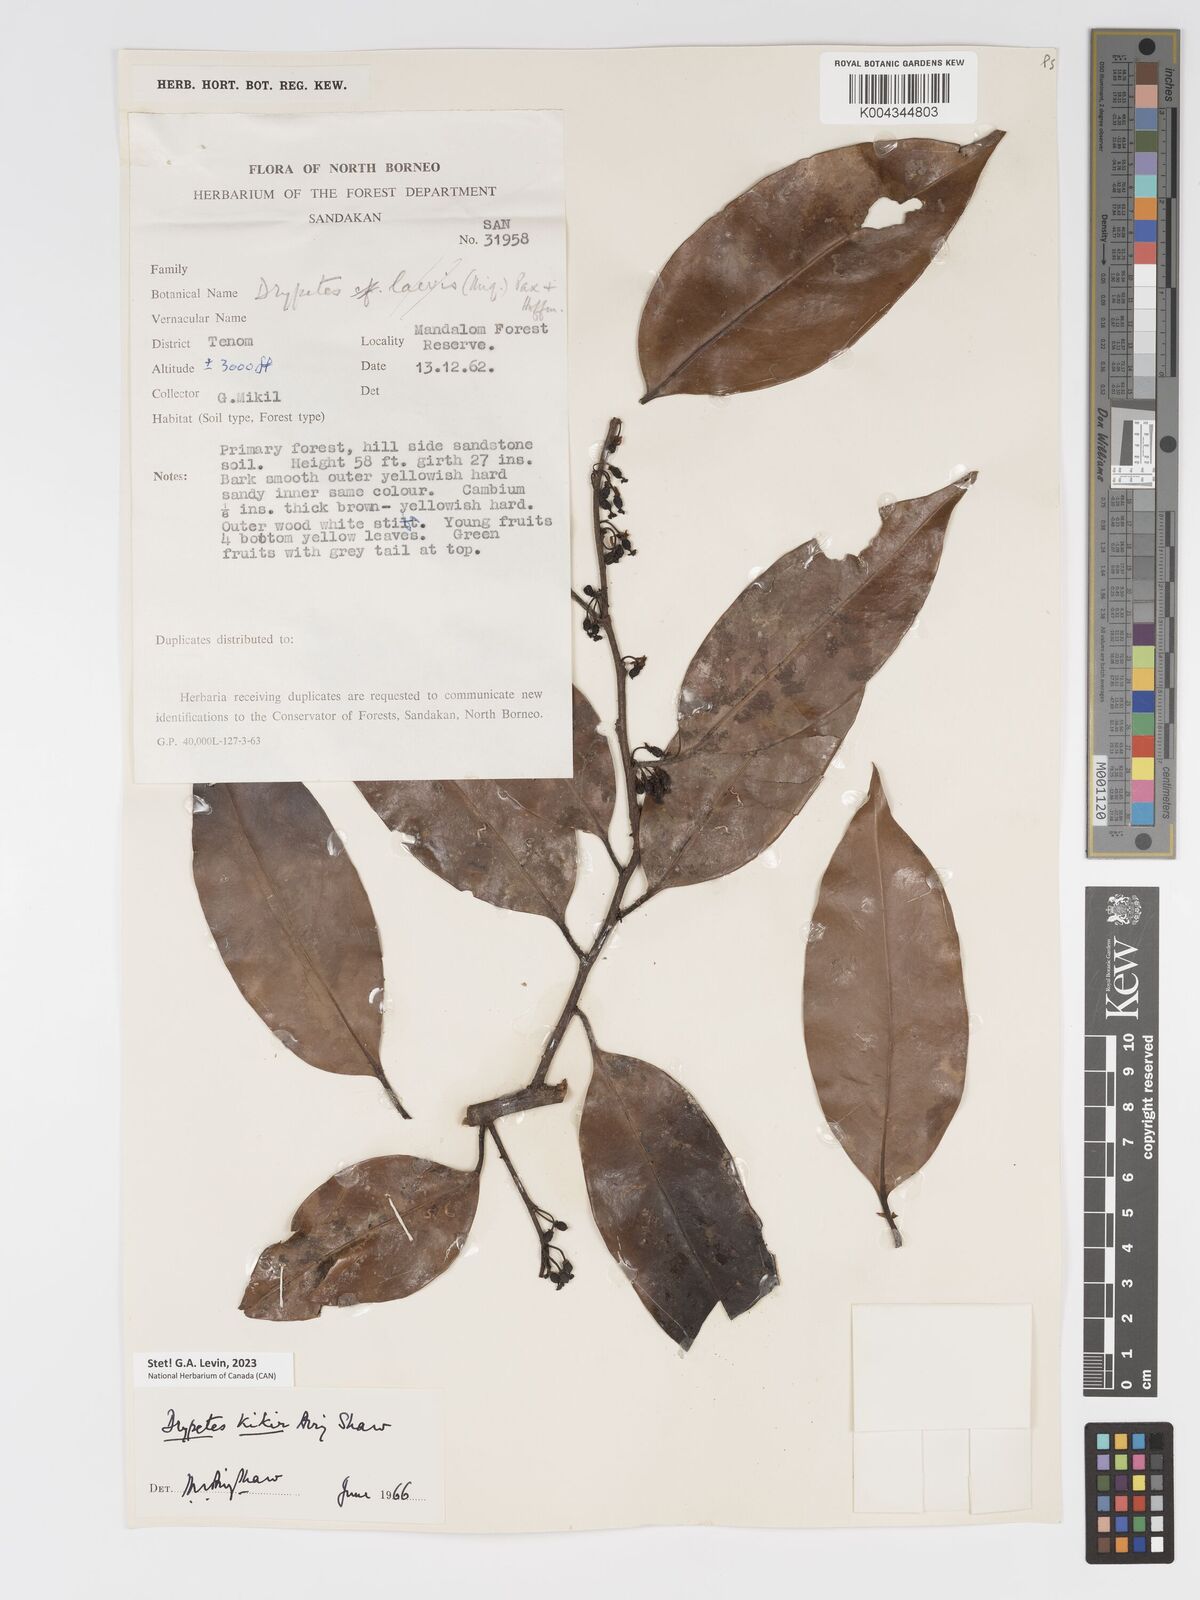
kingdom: Plantae
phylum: Tracheophyta
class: Magnoliopsida
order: Malpighiales
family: Putranjivaceae
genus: Drypetes
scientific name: Drypetes kikir
